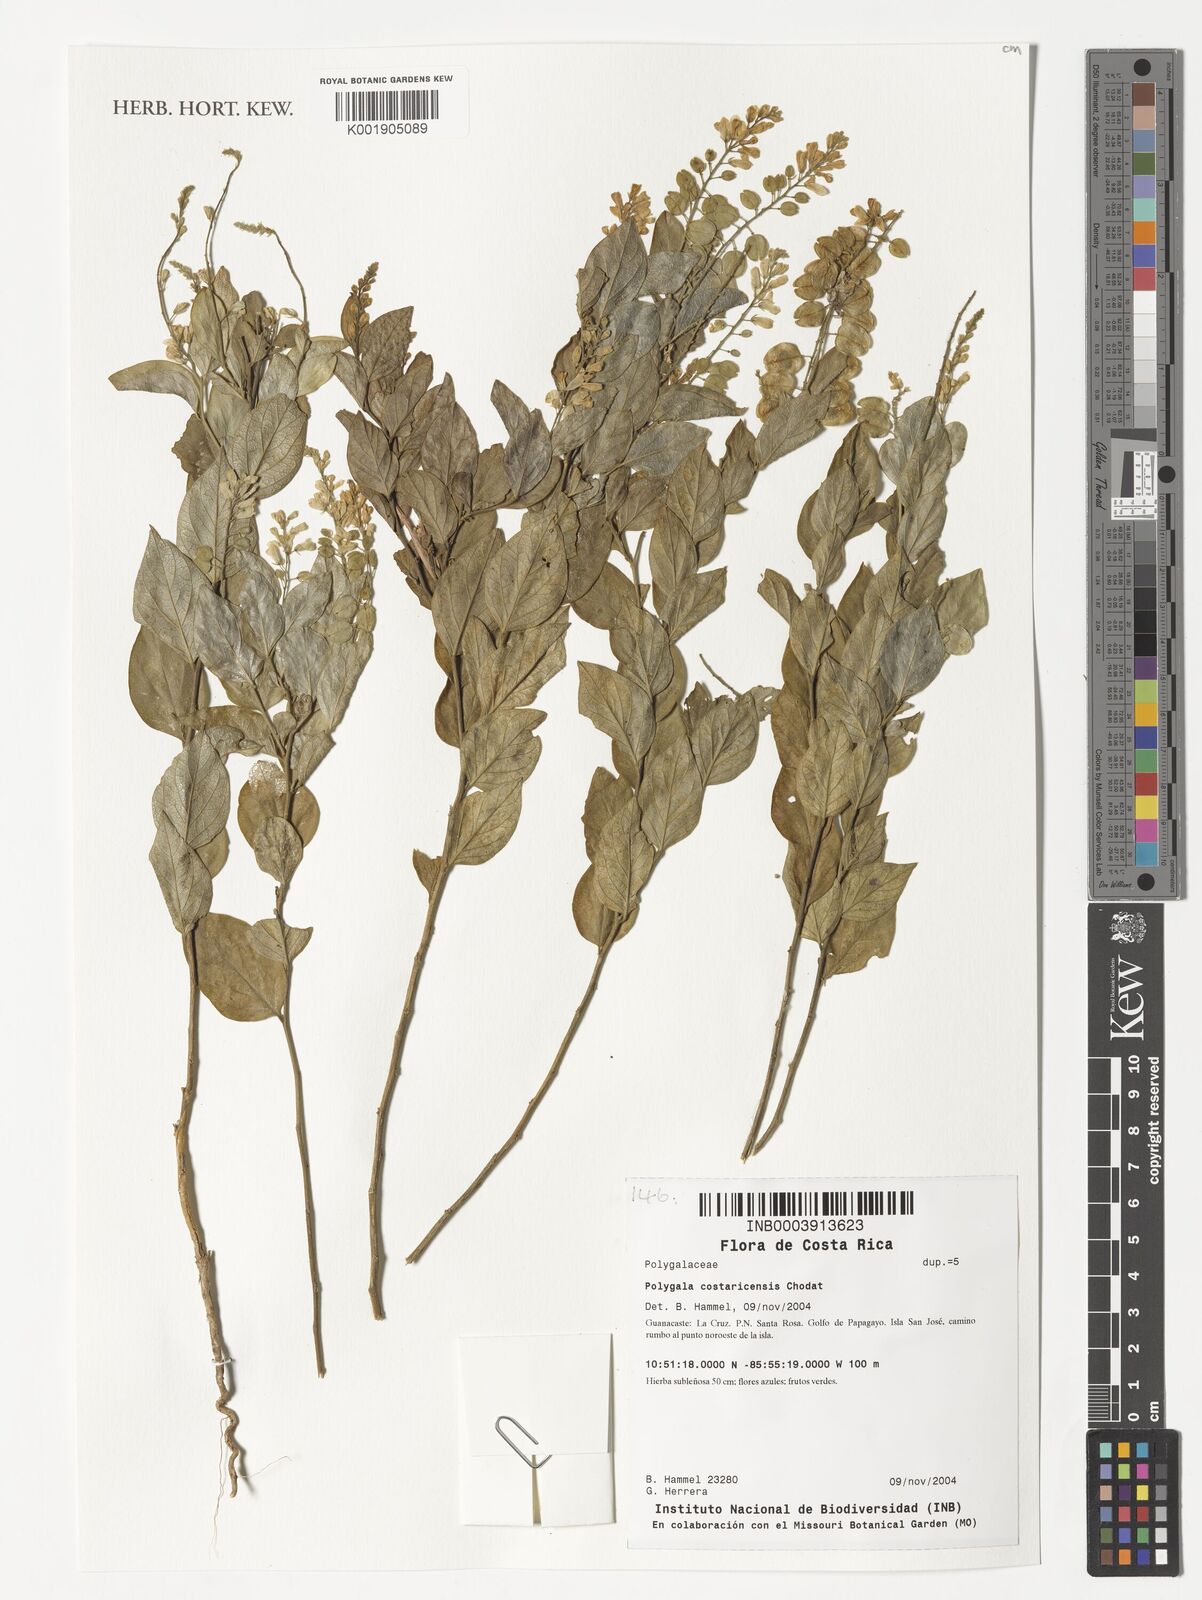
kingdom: Plantae
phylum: Tracheophyta
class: Magnoliopsida
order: Fabales
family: Polygalaceae
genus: Hebecarpa
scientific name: Hebecarpa costaricensis
